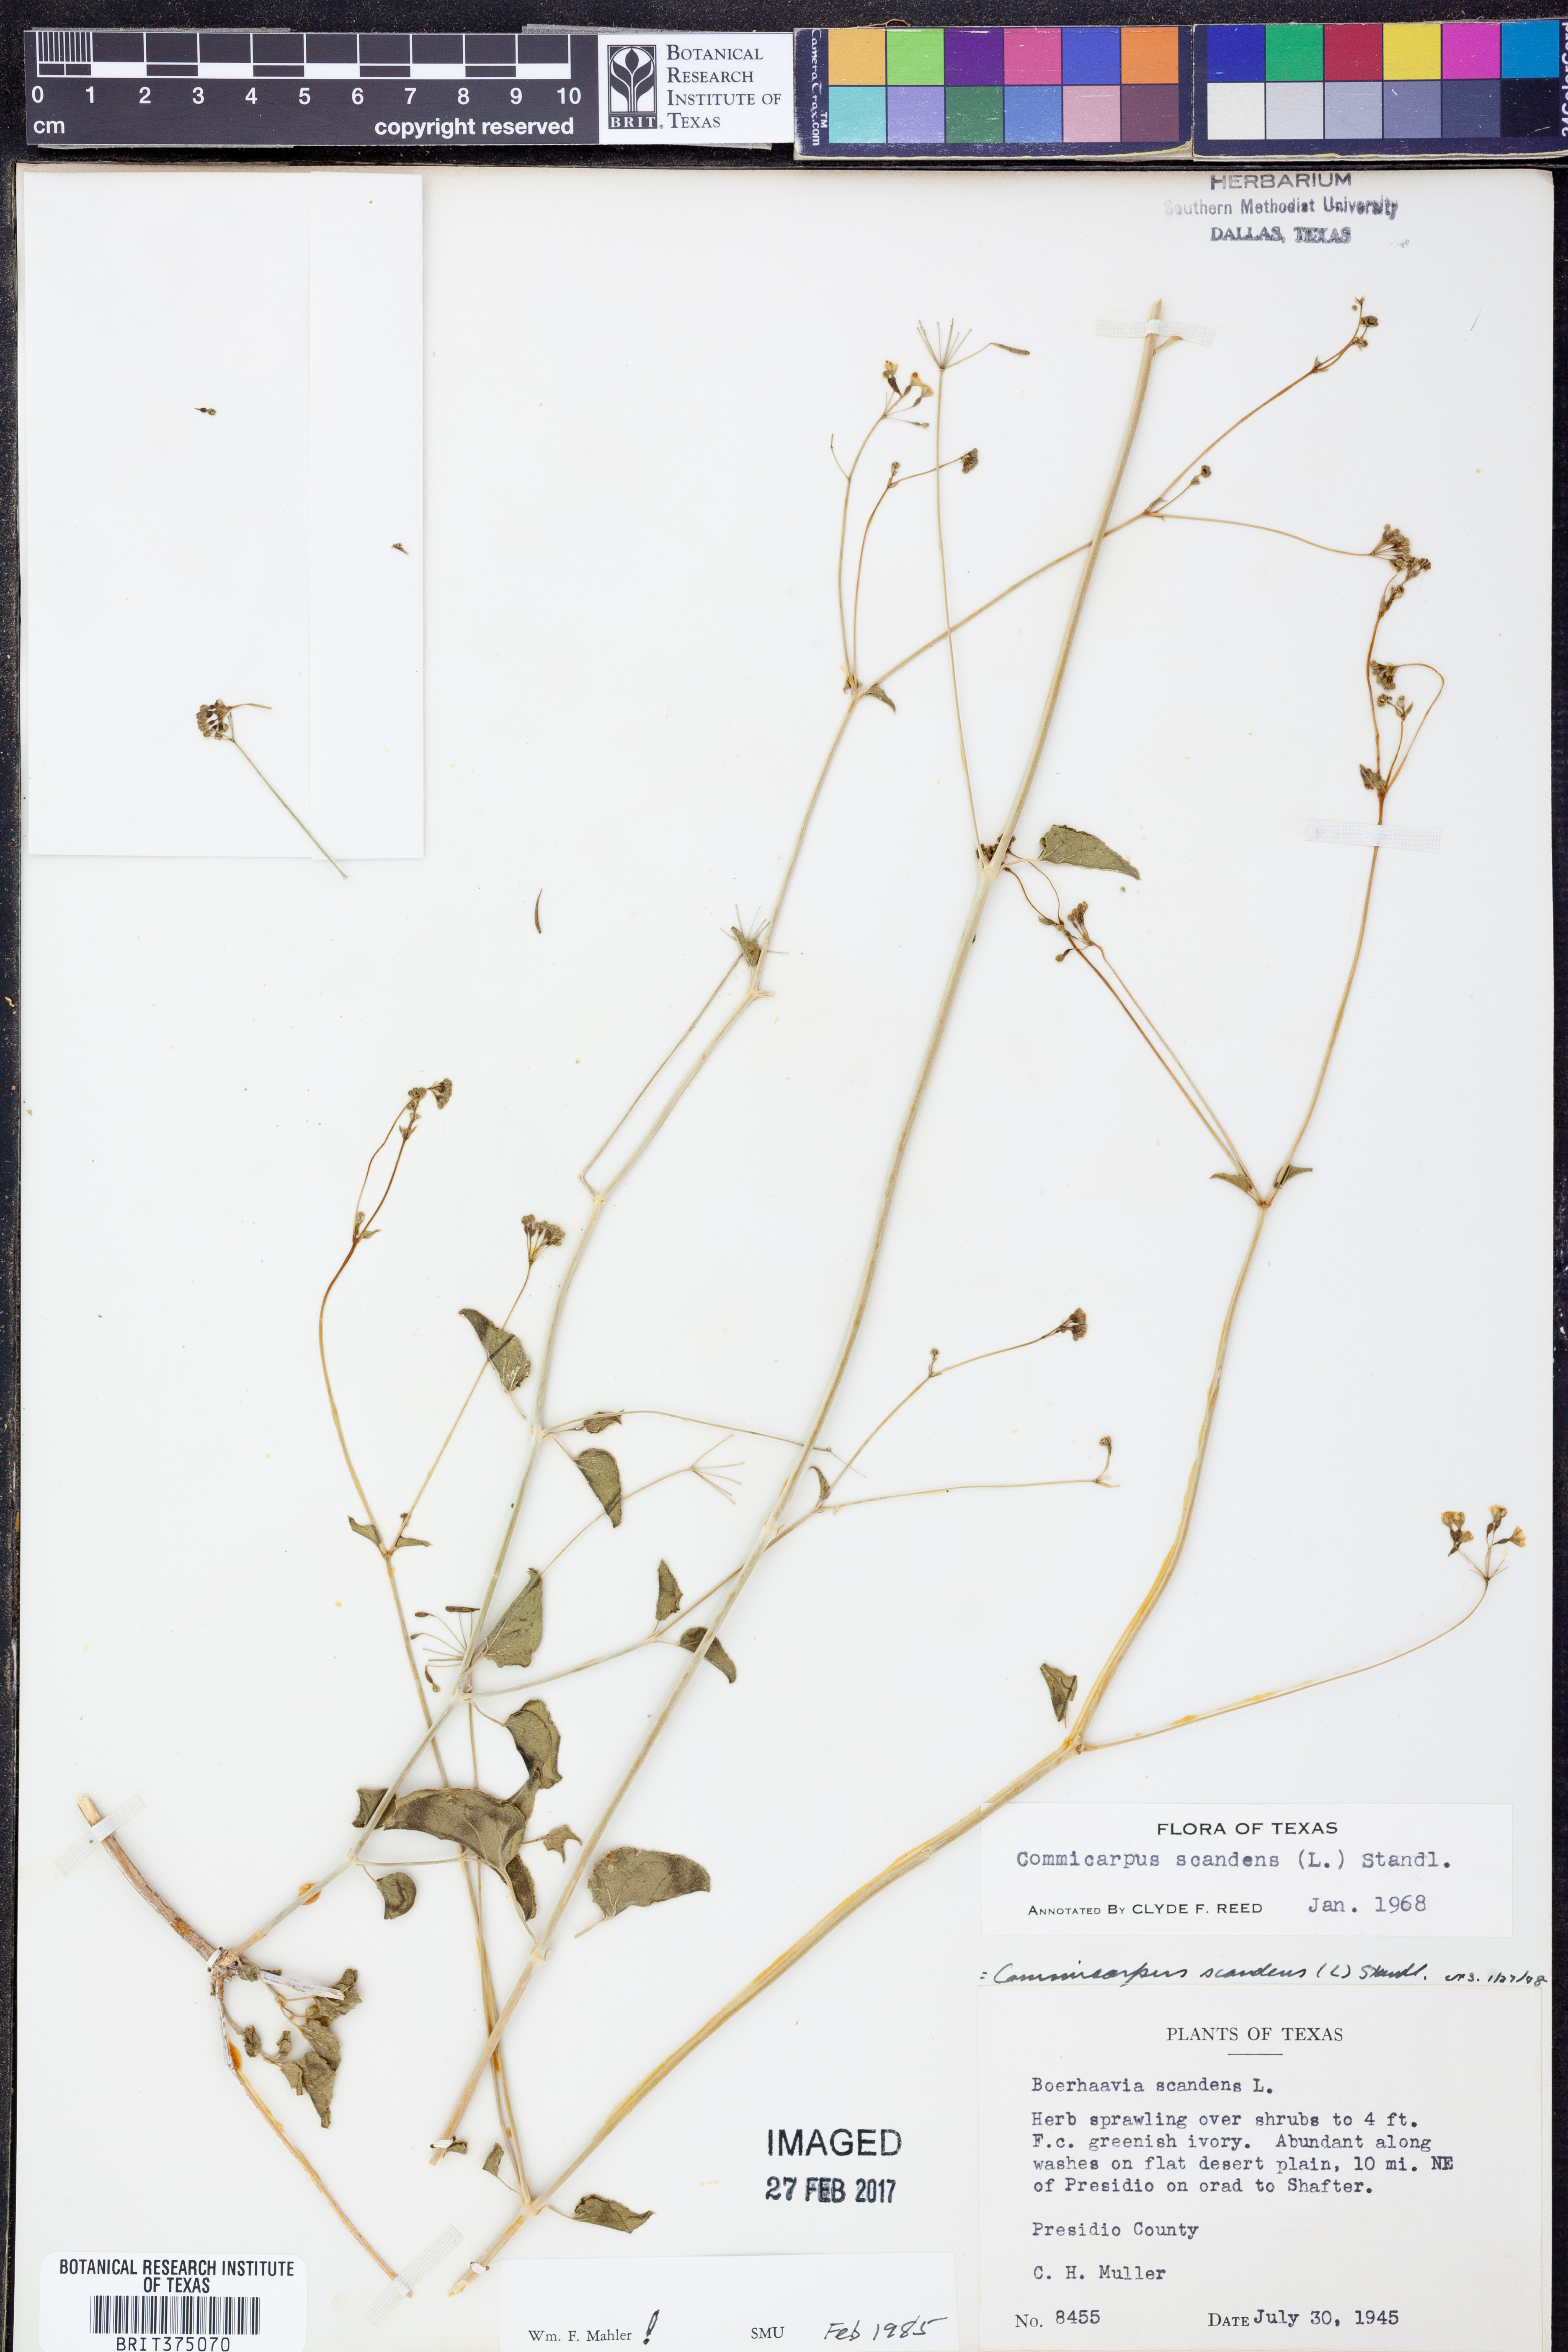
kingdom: Plantae
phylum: Tracheophyta
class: Magnoliopsida
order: Caryophyllales
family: Nyctaginaceae
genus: Commicarpus
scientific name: Commicarpus scandens
